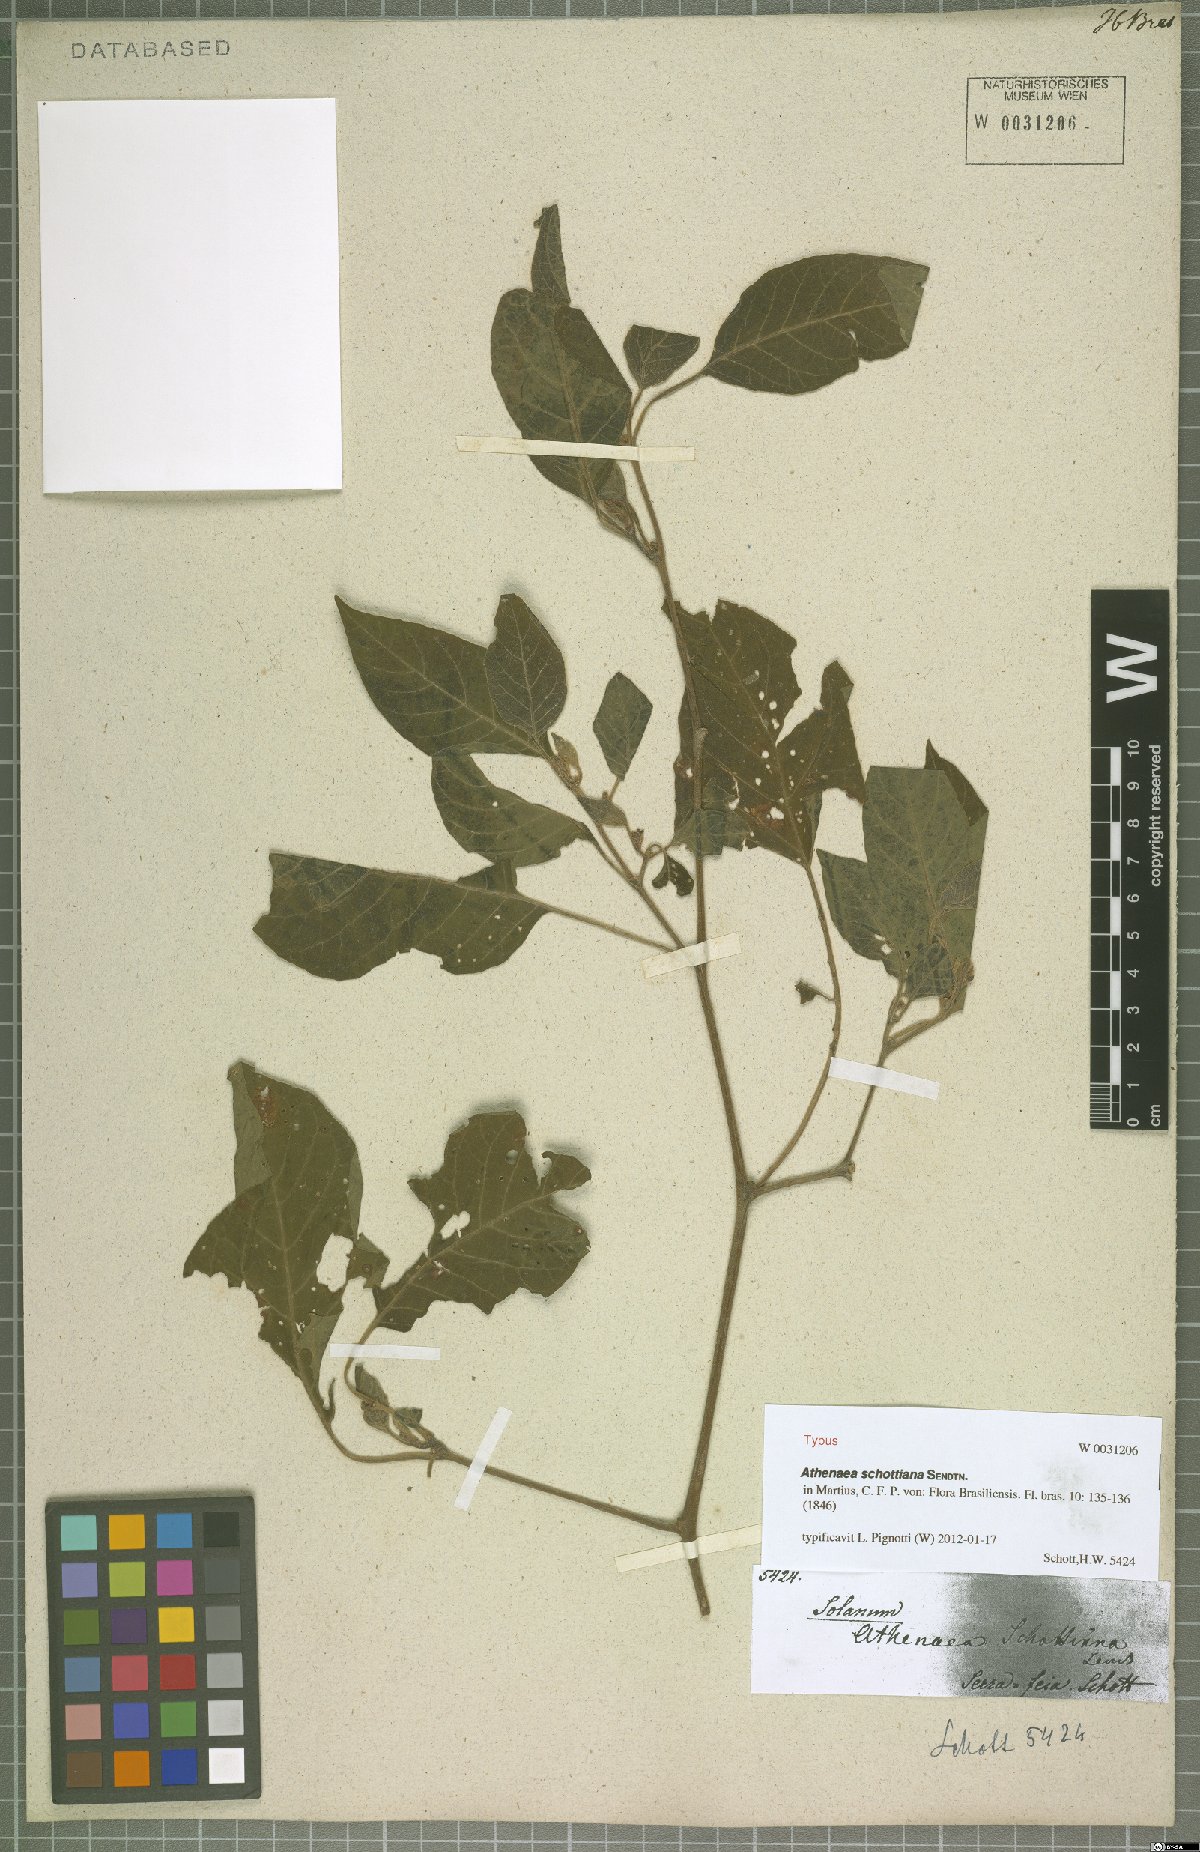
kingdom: Plantae
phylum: Tracheophyta
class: Magnoliopsida
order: Solanales
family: Solanaceae
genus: Athenaea
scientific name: Athenaea pogogena
